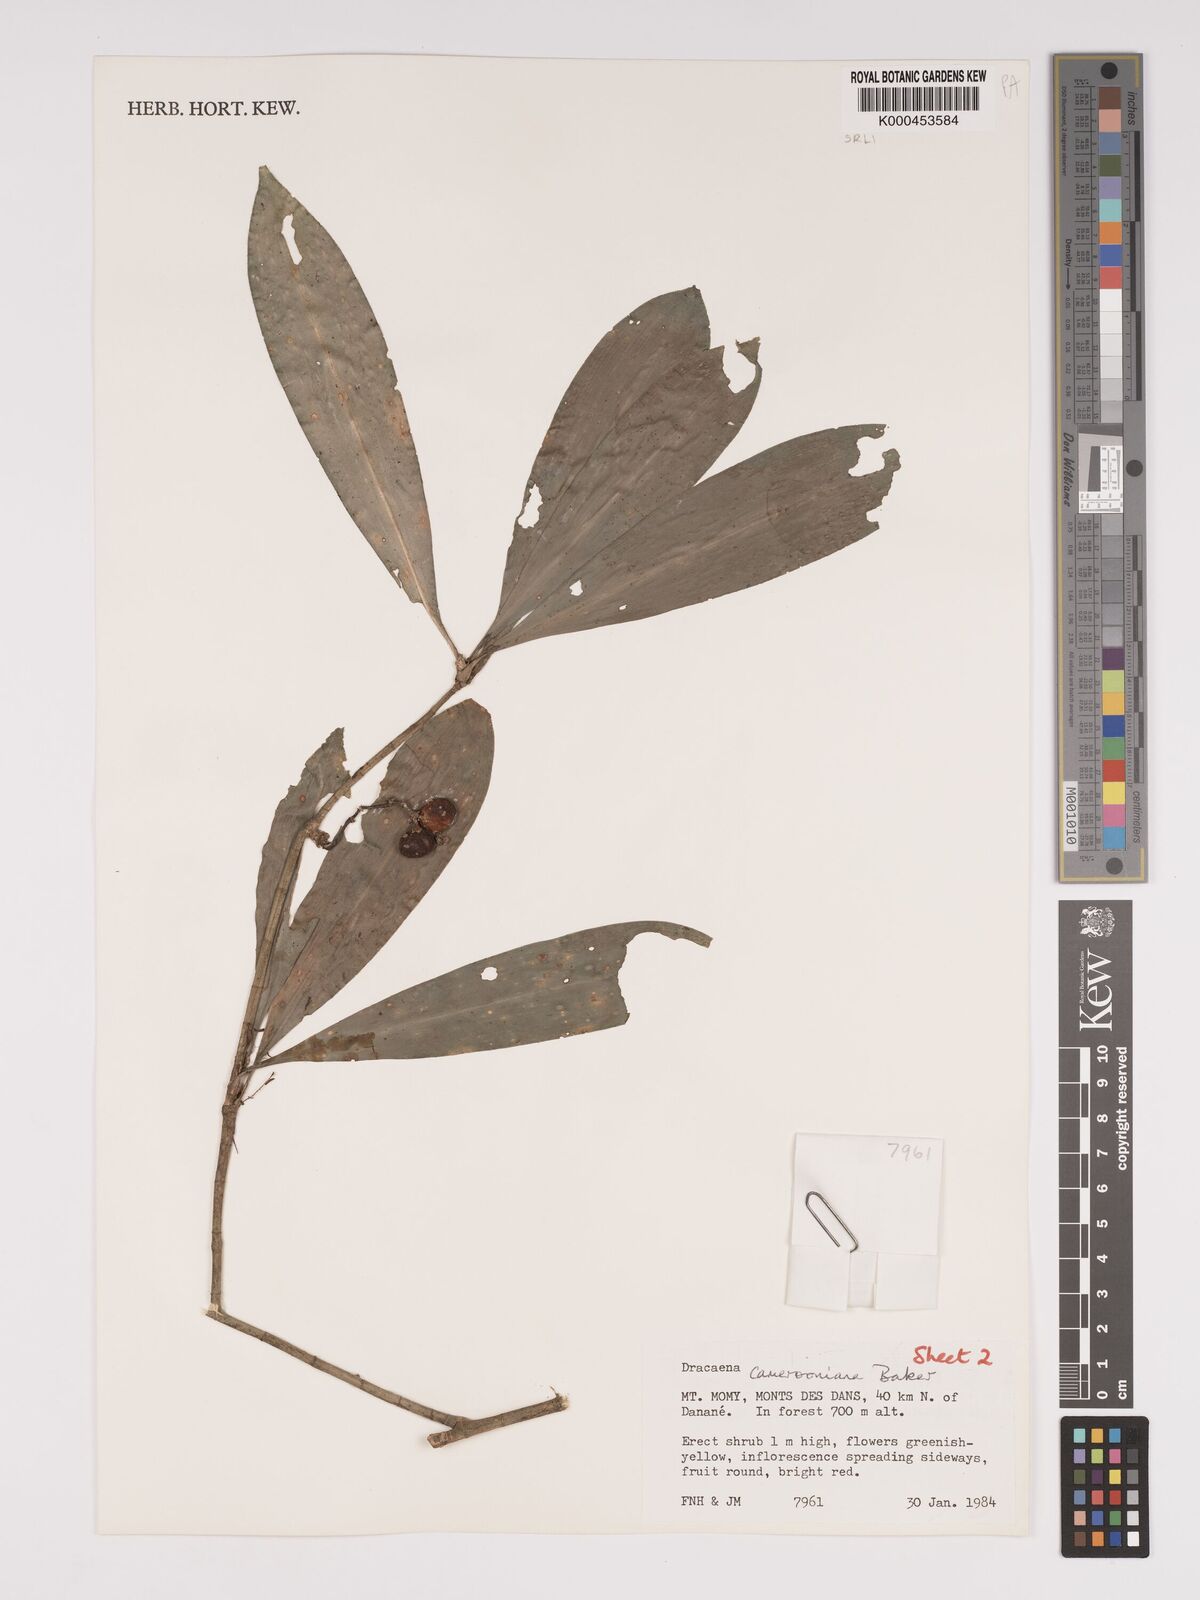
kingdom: Plantae
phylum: Tracheophyta
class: Liliopsida
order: Asparagales
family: Asparagaceae
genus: Dracaena
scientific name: Dracaena camerooniana
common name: Dragon tree
